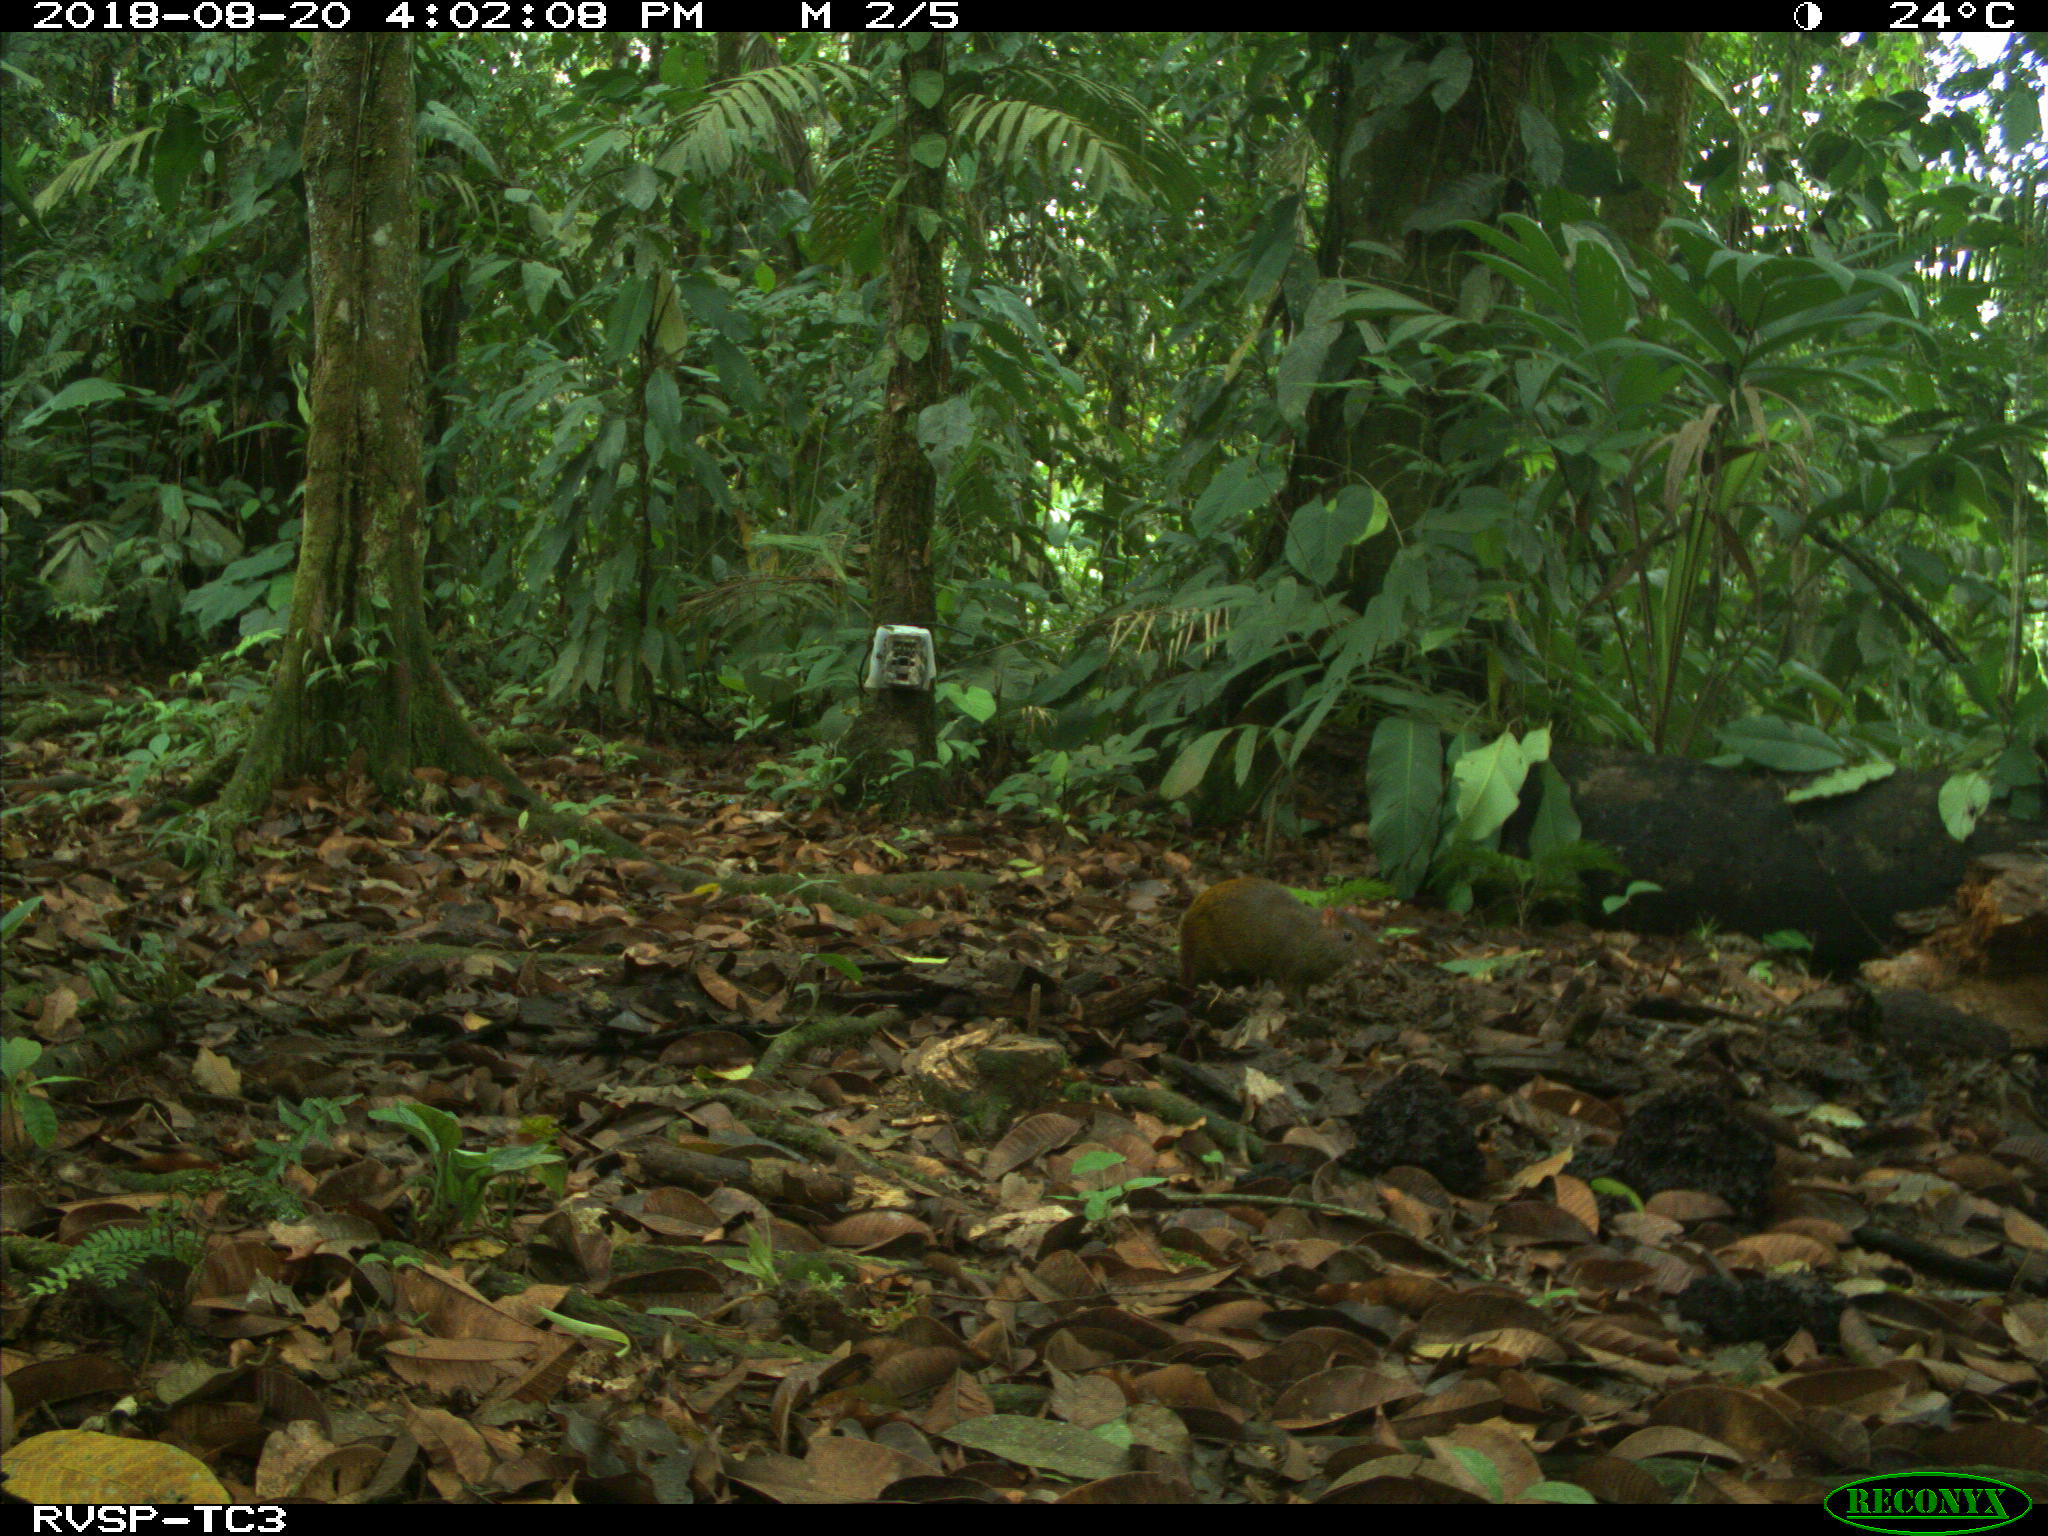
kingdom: Animalia
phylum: Chordata
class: Mammalia
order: Rodentia
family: Dasyproctidae
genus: Dasyprocta
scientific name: Dasyprocta punctata
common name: Central american agouti
